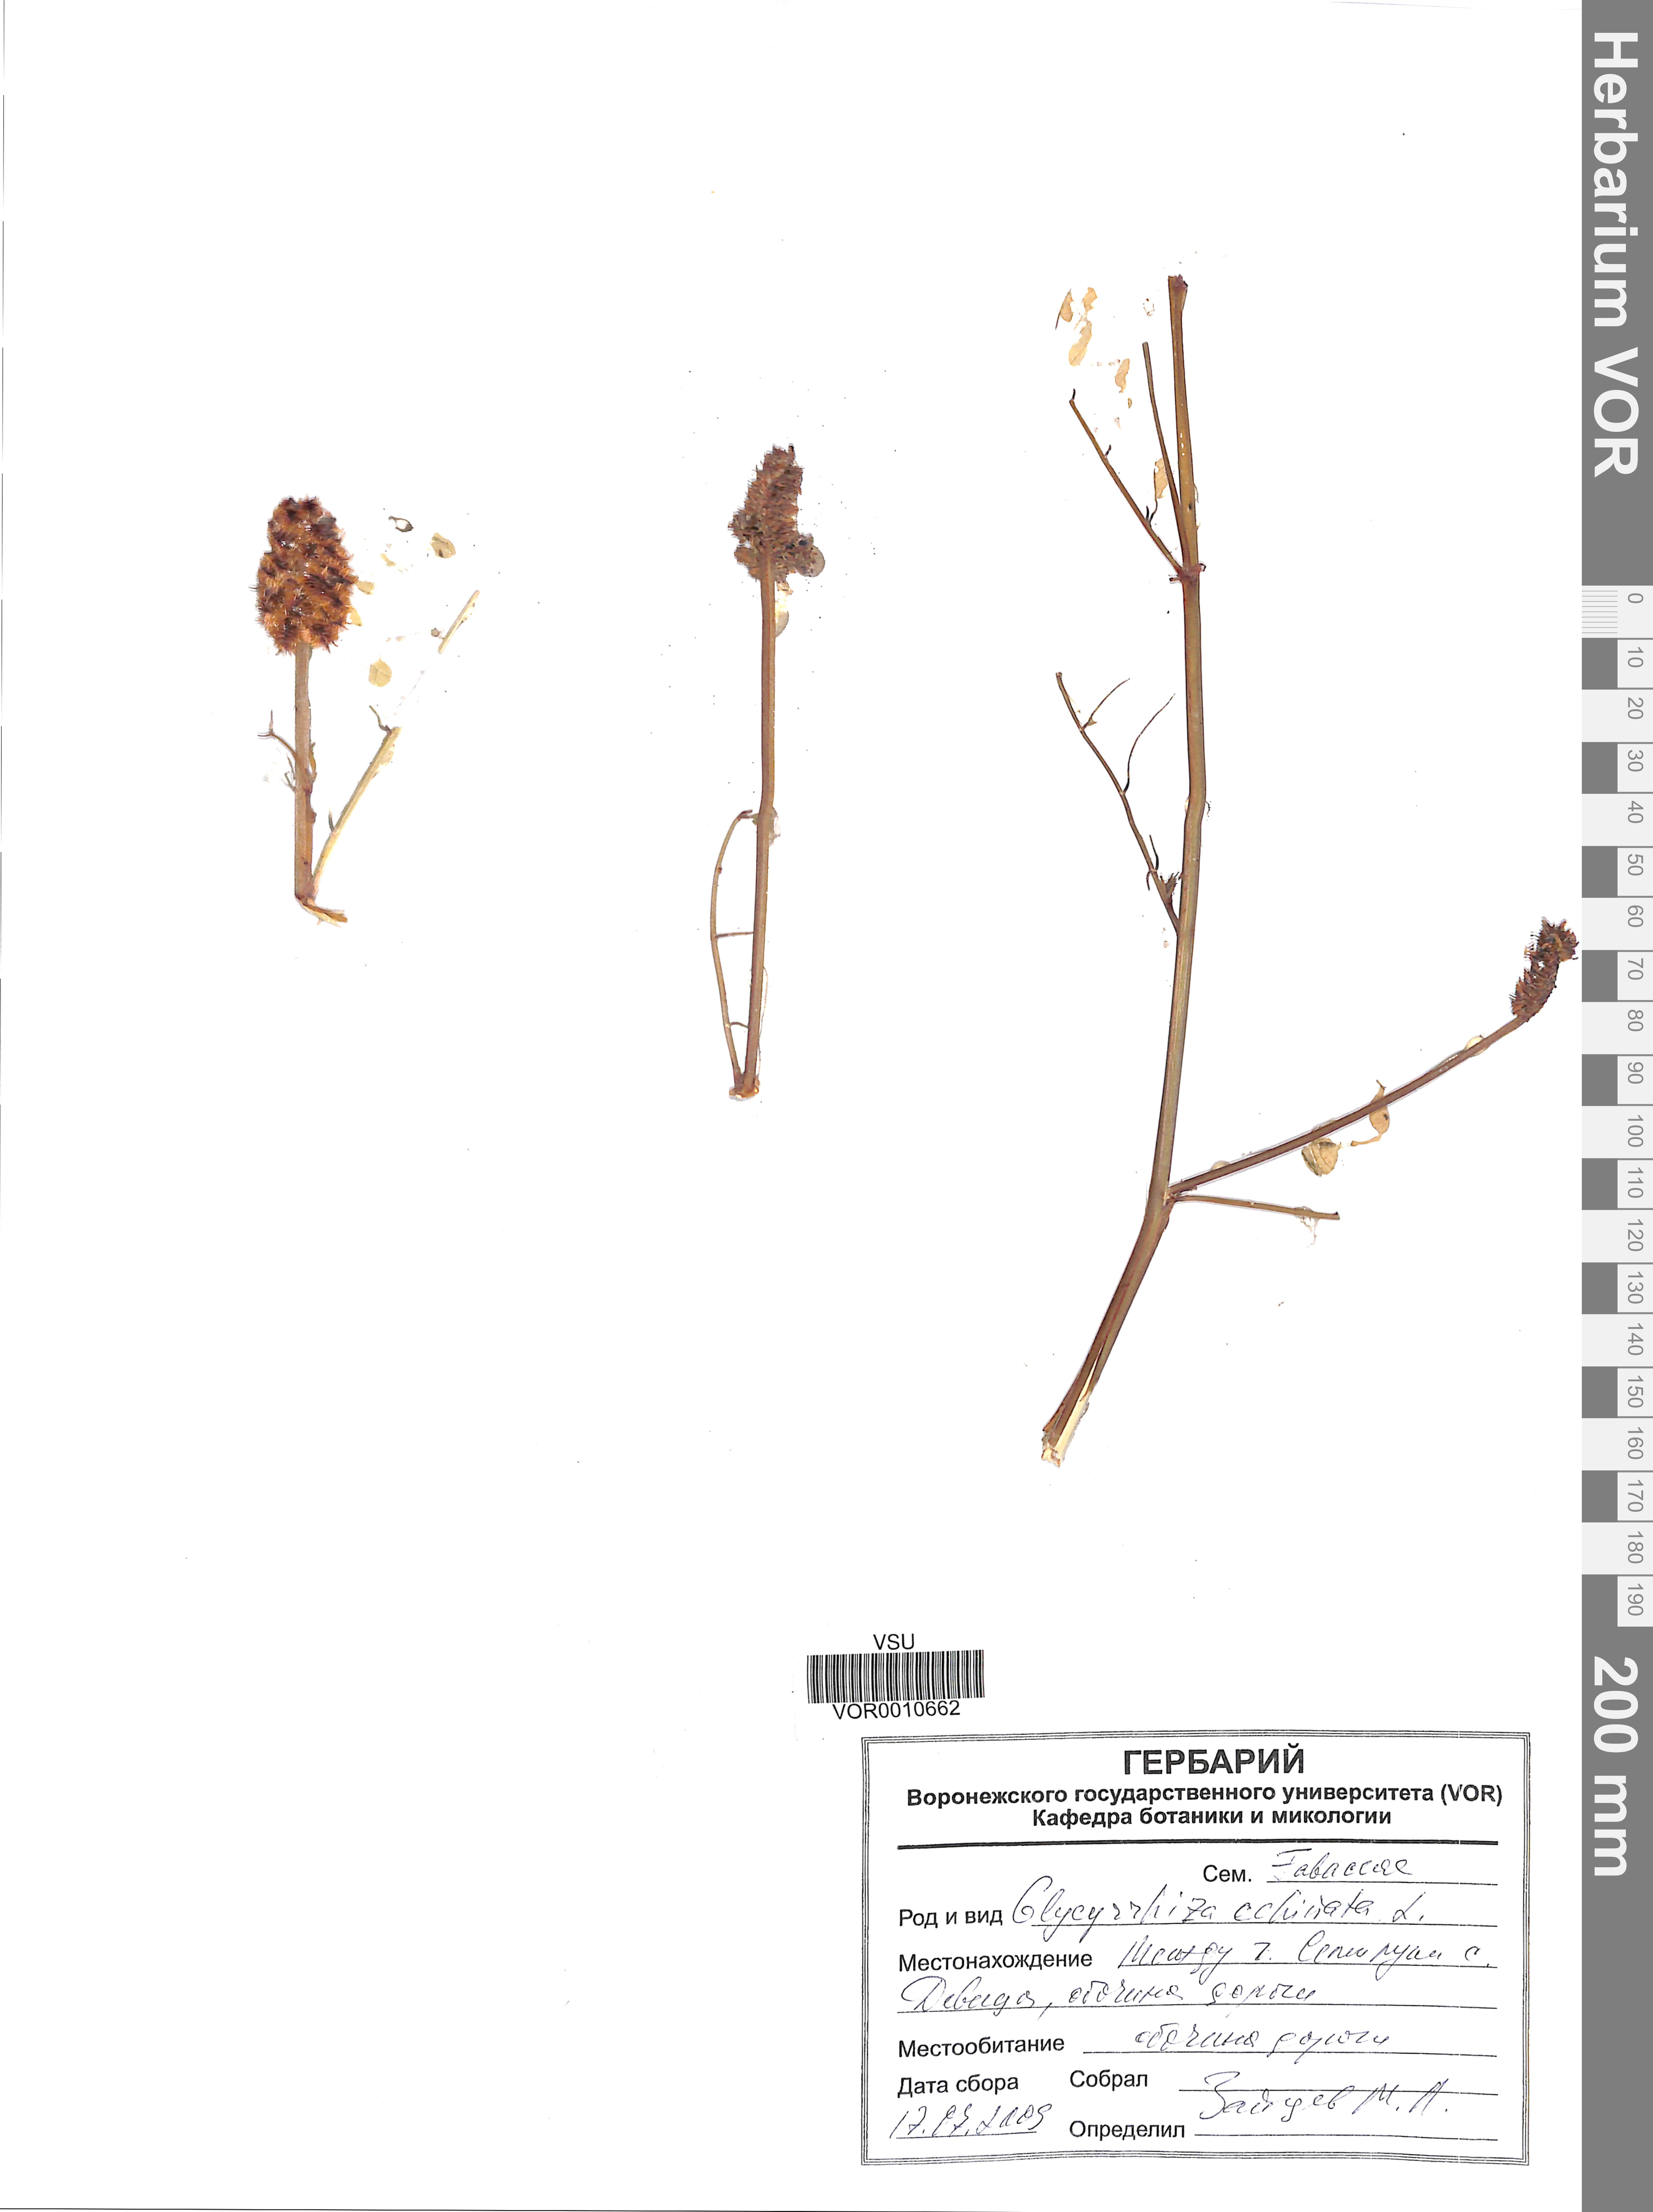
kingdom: Plantae
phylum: Tracheophyta
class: Magnoliopsida
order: Fabales
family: Fabaceae
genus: Glycyrrhiza
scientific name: Glycyrrhiza echinata
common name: German liquorice
